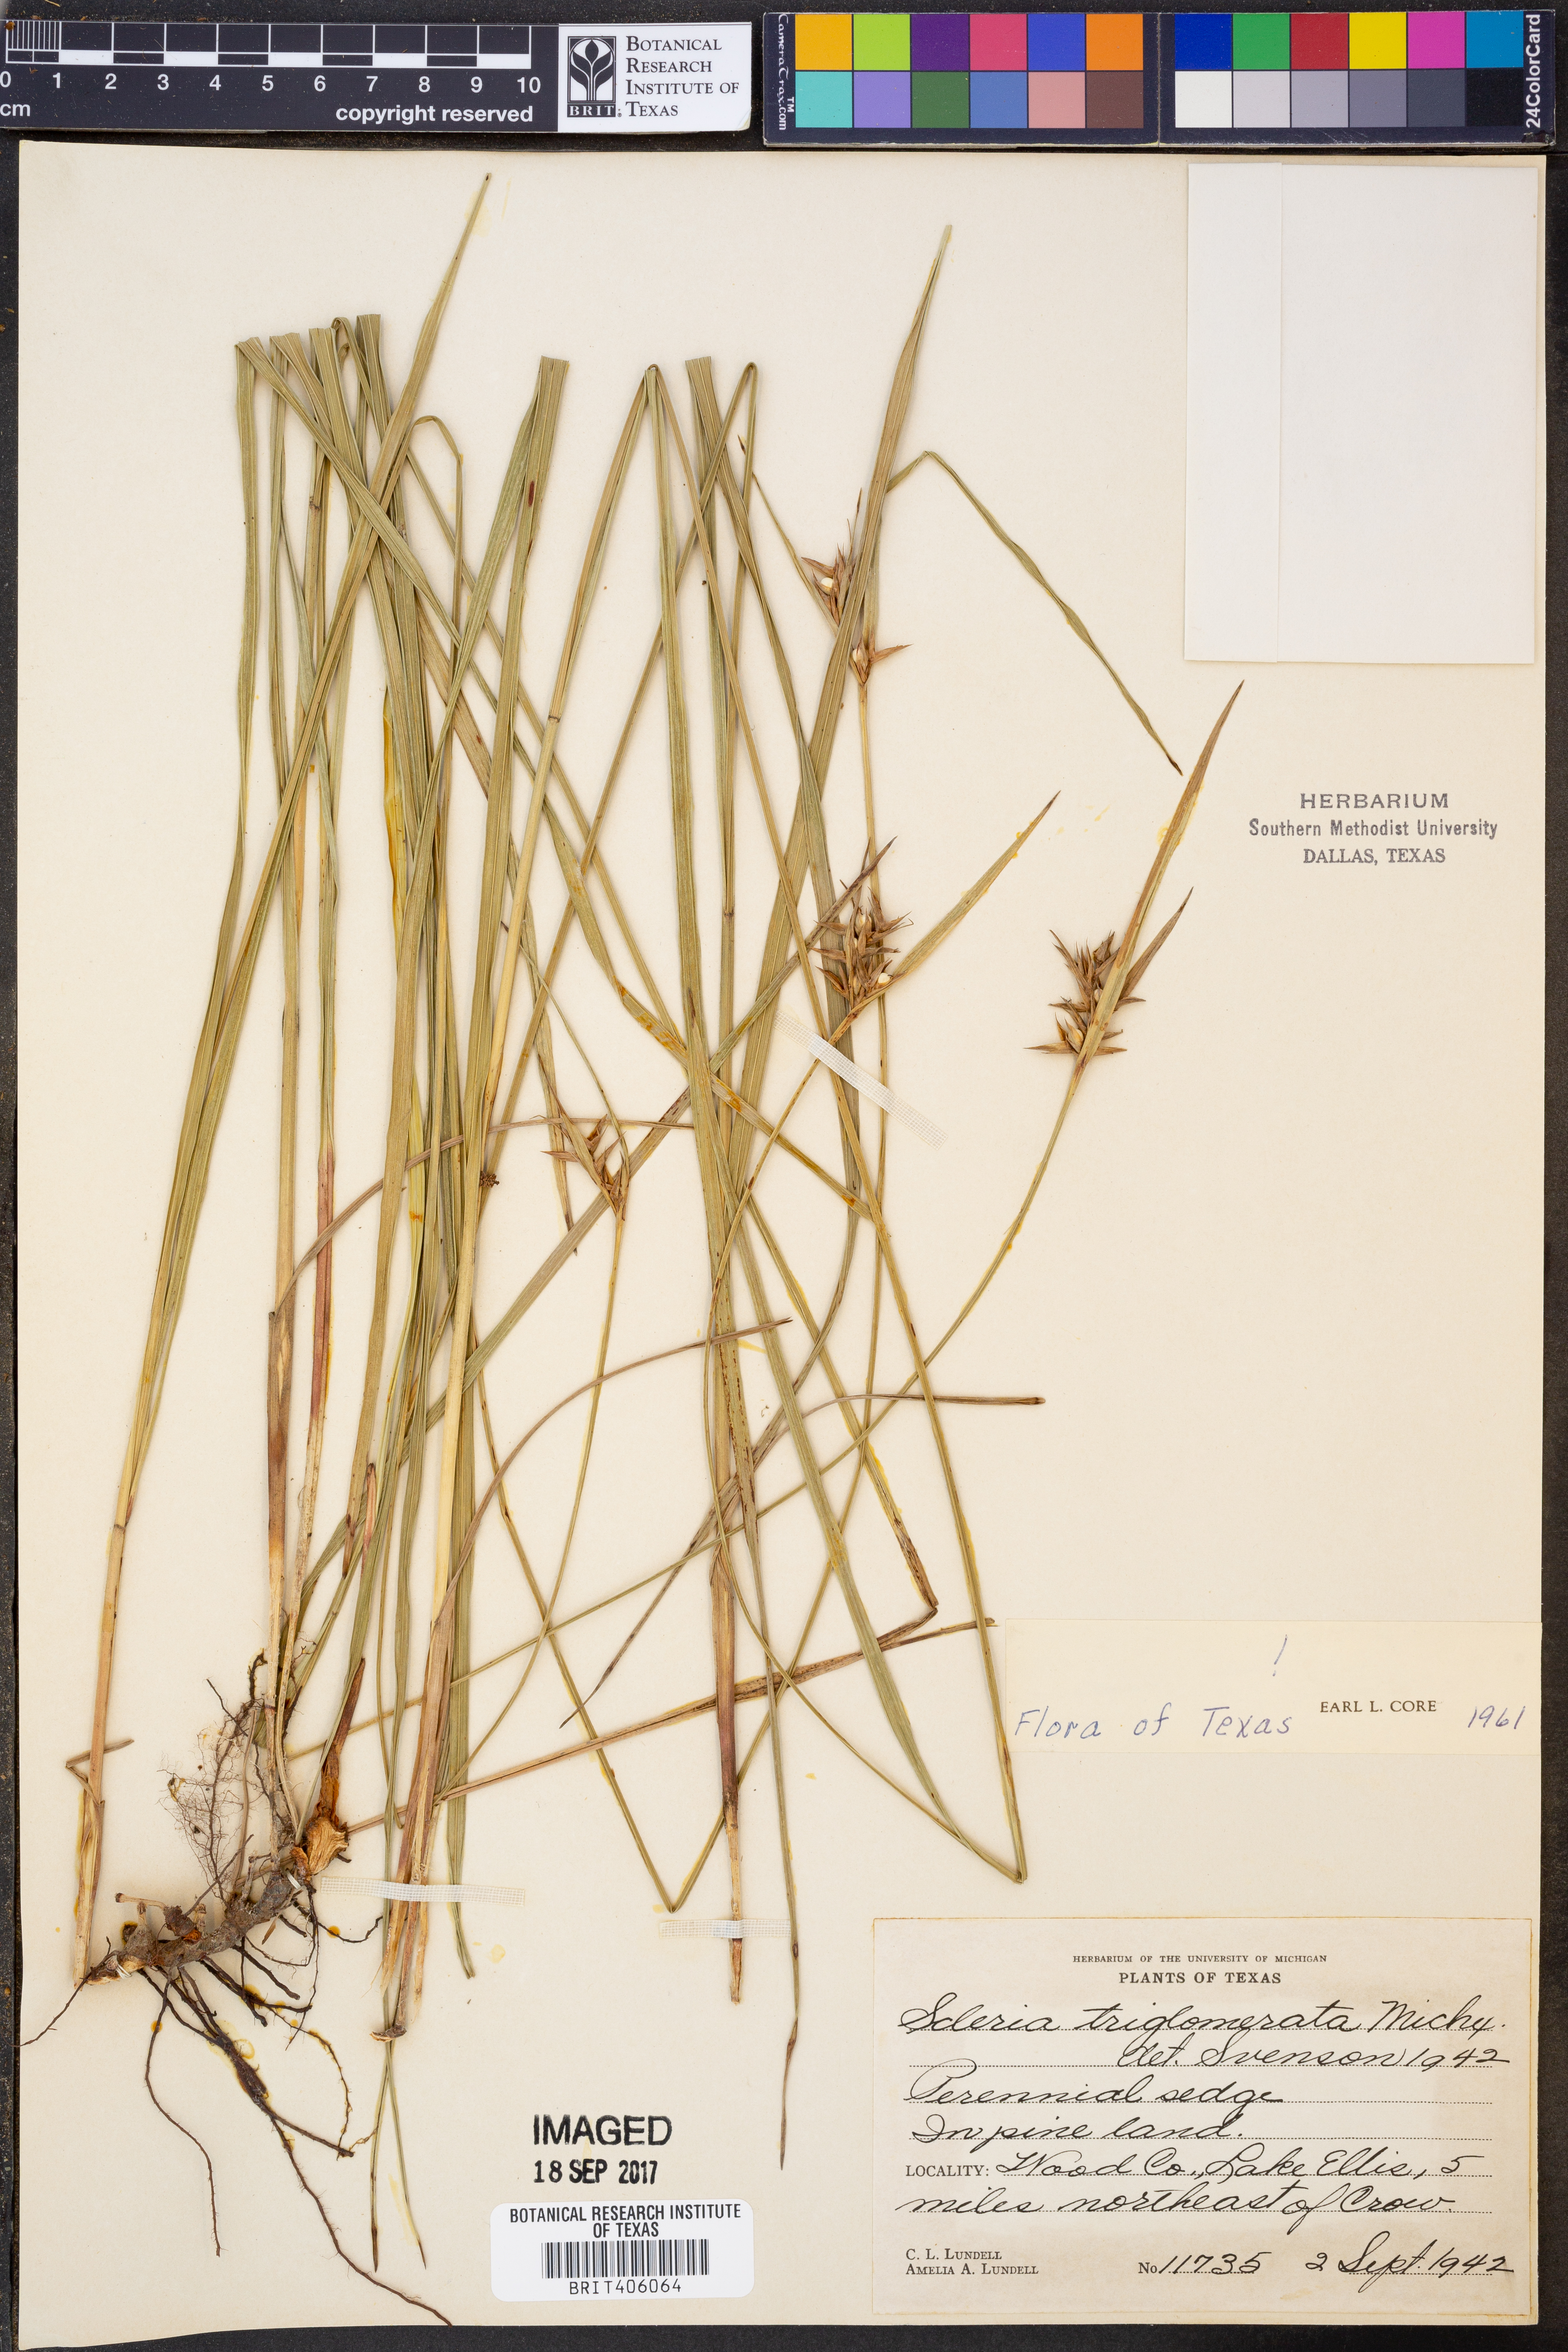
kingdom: Plantae
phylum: Tracheophyta
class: Liliopsida
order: Poales
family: Cyperaceae
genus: Scleria
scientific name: Scleria triglomerata
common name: Whip nutrush
